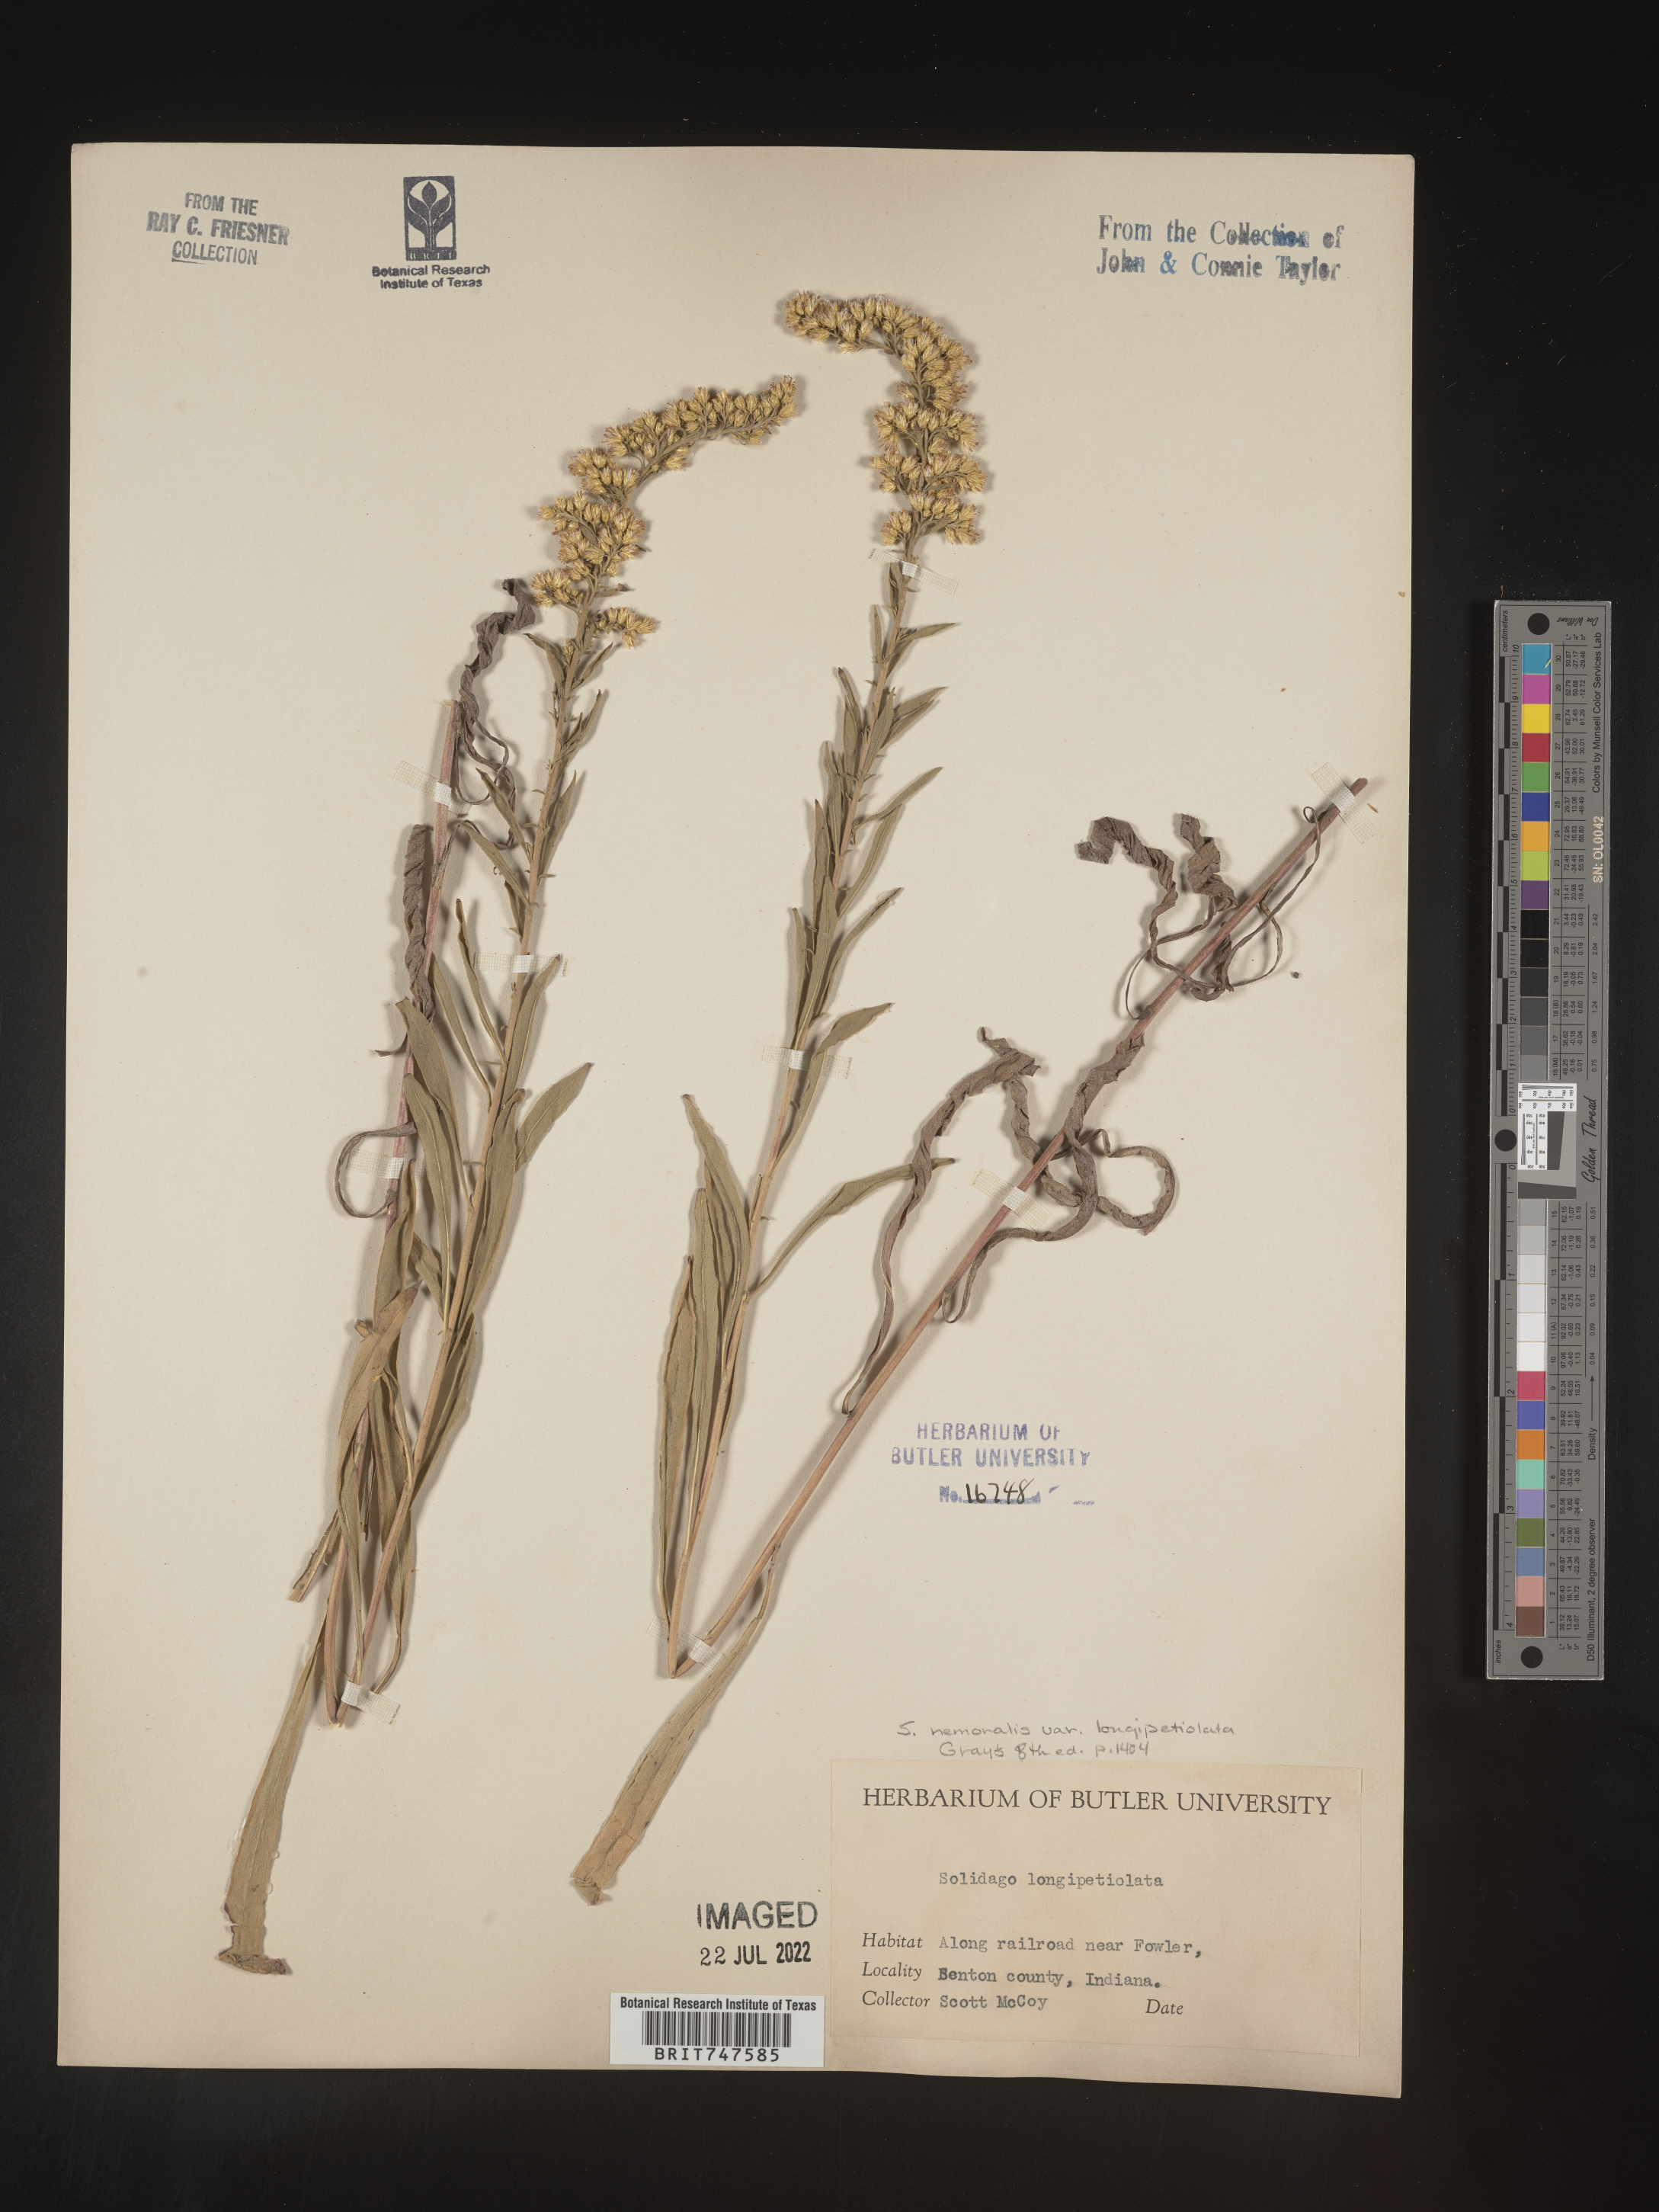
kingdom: Plantae
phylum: Tracheophyta
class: Magnoliopsida
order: Asterales
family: Asteraceae
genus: Solidago
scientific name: Solidago nemoralis
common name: Grey goldenrod
